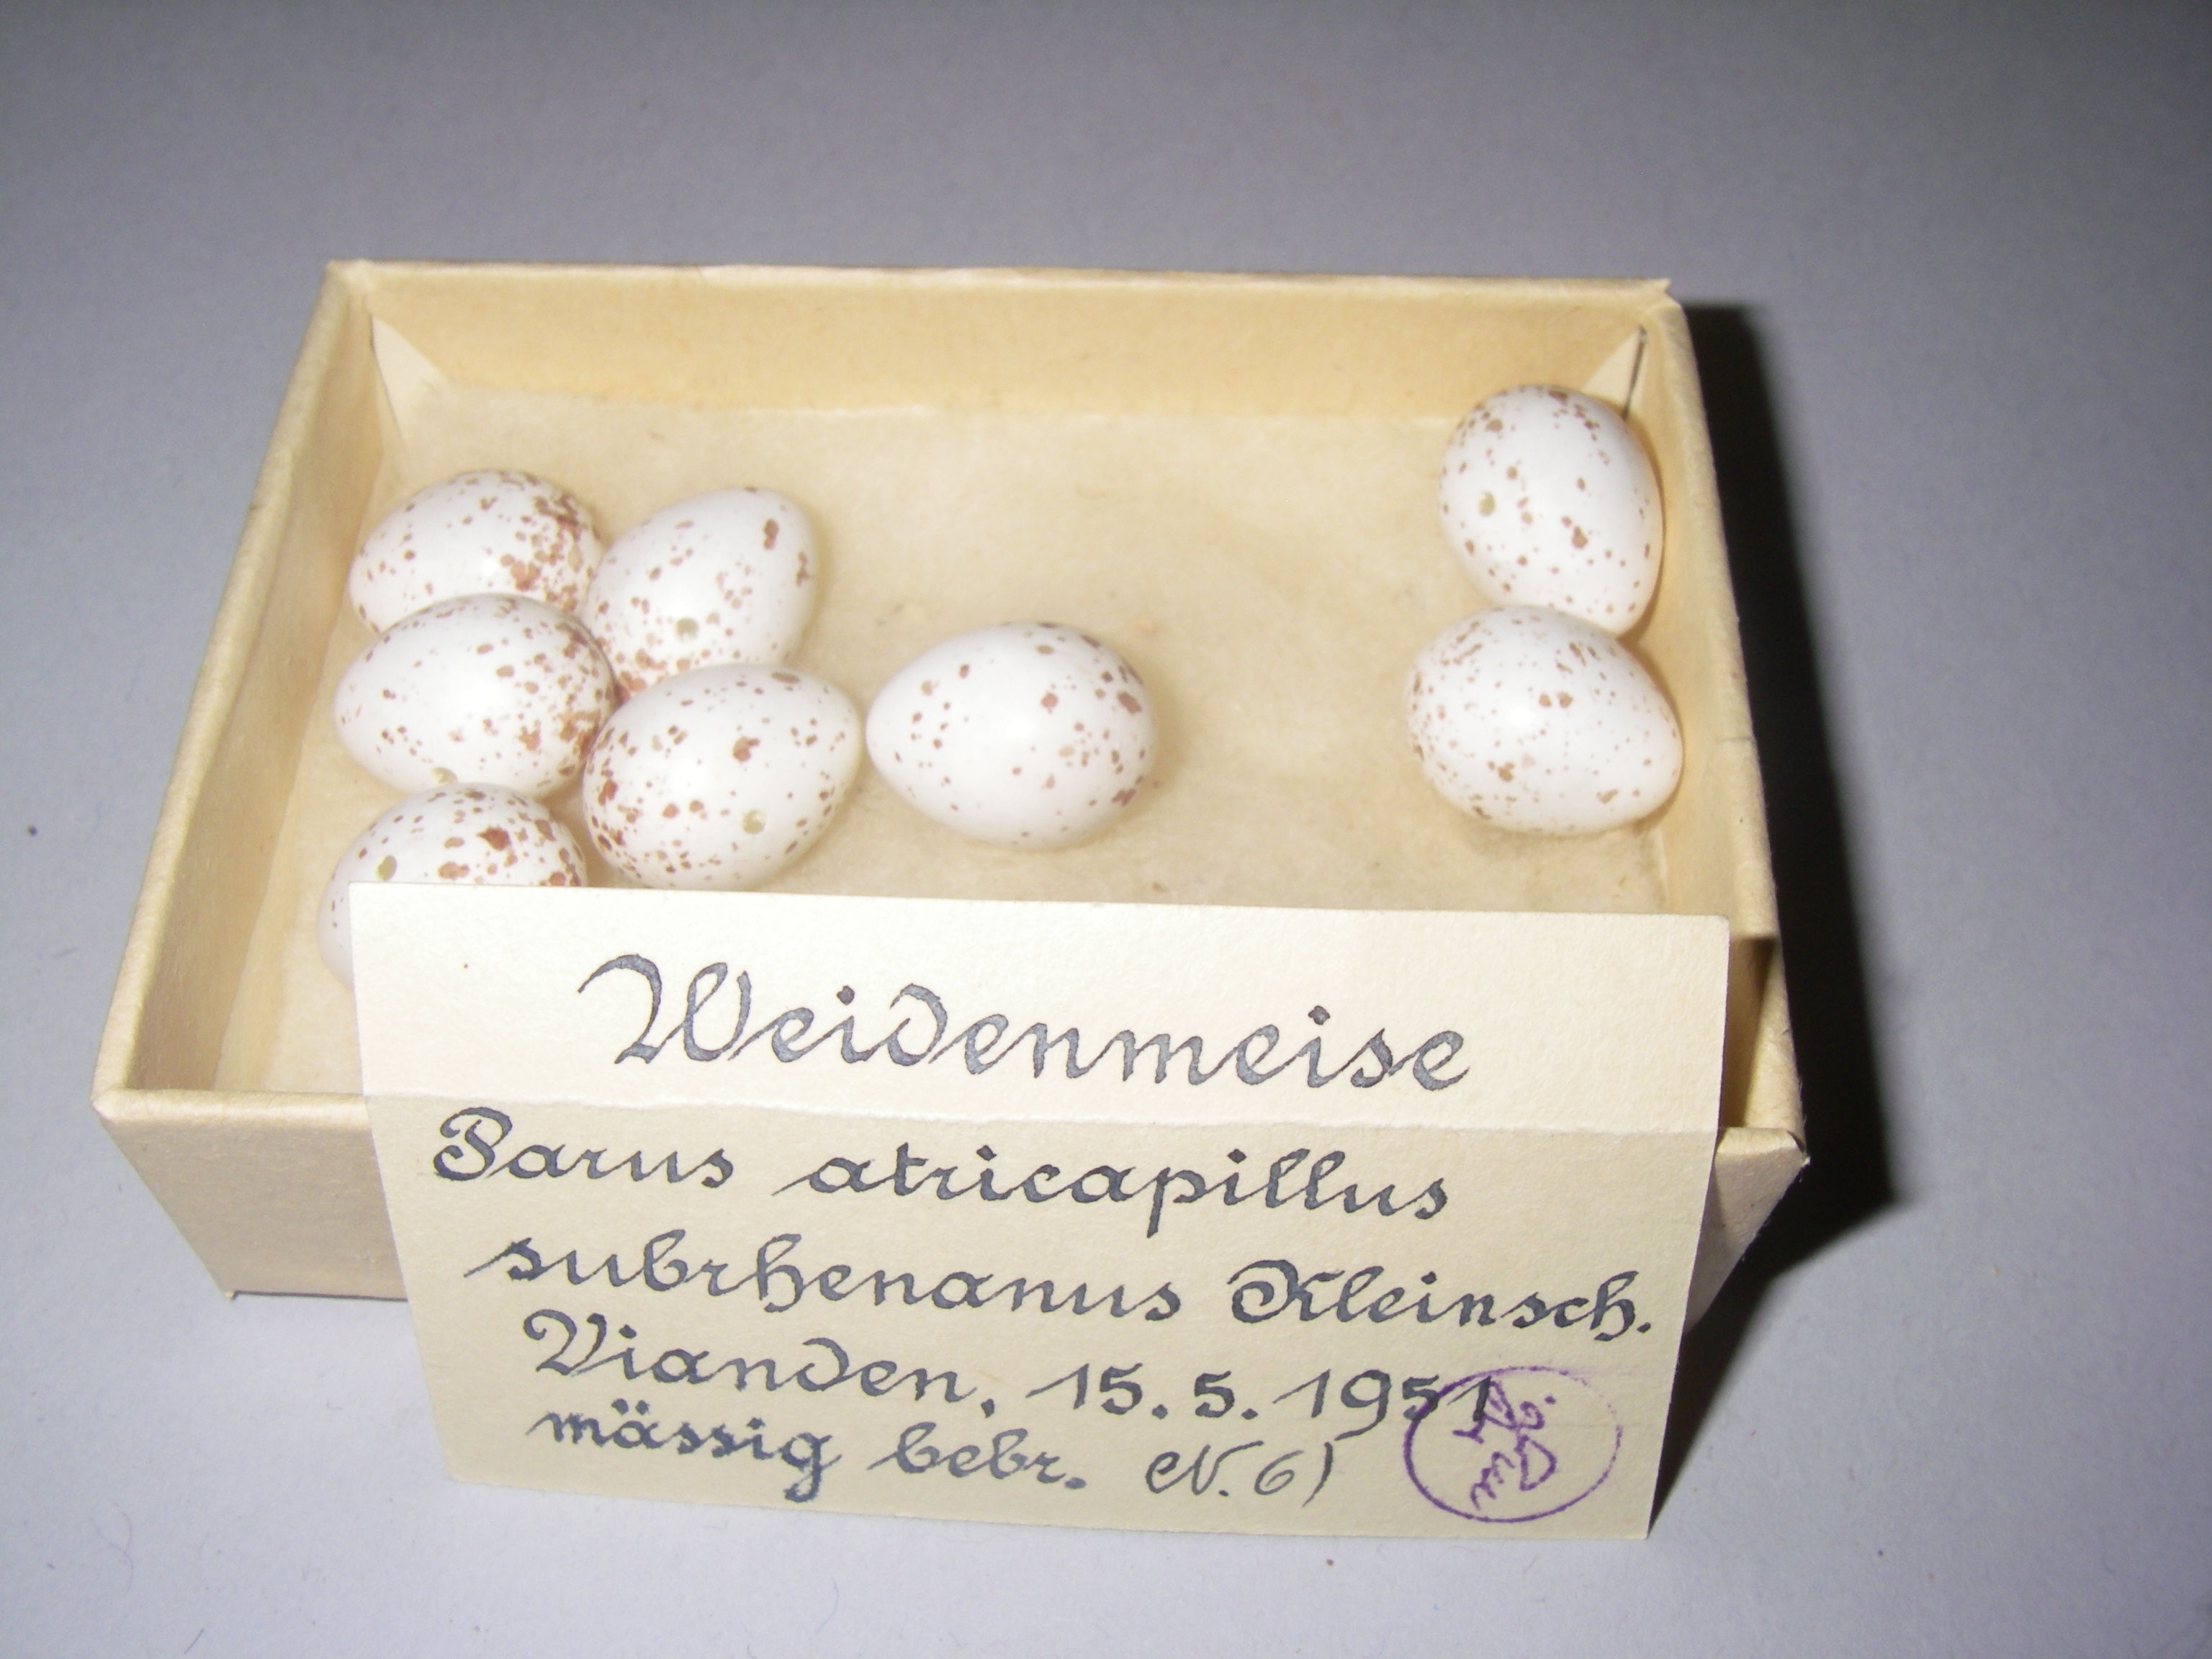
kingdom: Animalia
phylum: Chordata
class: Aves
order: Passeriformes
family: Paridae
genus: Poecile
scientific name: Poecile montanus
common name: Willow tit
